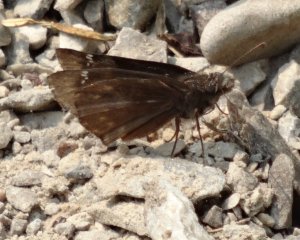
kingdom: Animalia
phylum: Arthropoda
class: Insecta
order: Lepidoptera
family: Hesperiidae
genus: Gesta
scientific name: Gesta
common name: Wild Indigo Duskywing
